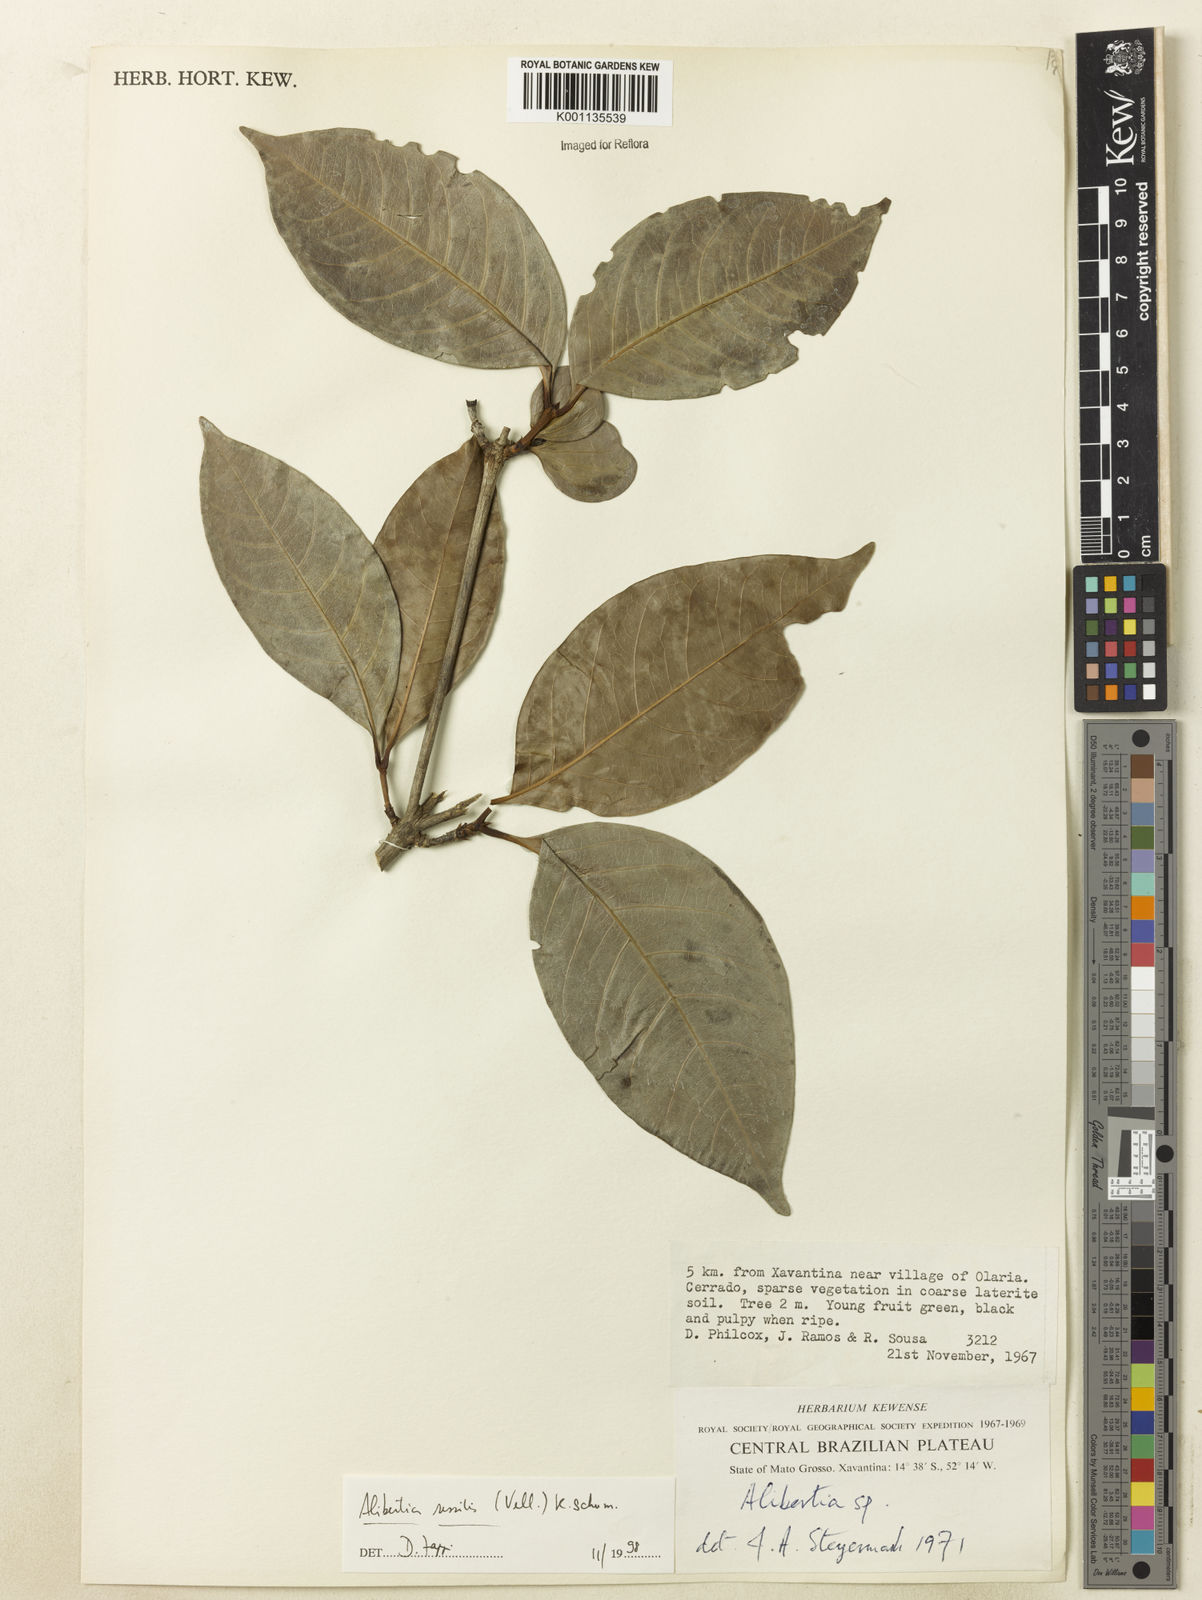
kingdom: Plantae
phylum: Tracheophyta
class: Magnoliopsida
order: Gentianales
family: Rubiaceae
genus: Cordiera
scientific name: Cordiera sessilis
